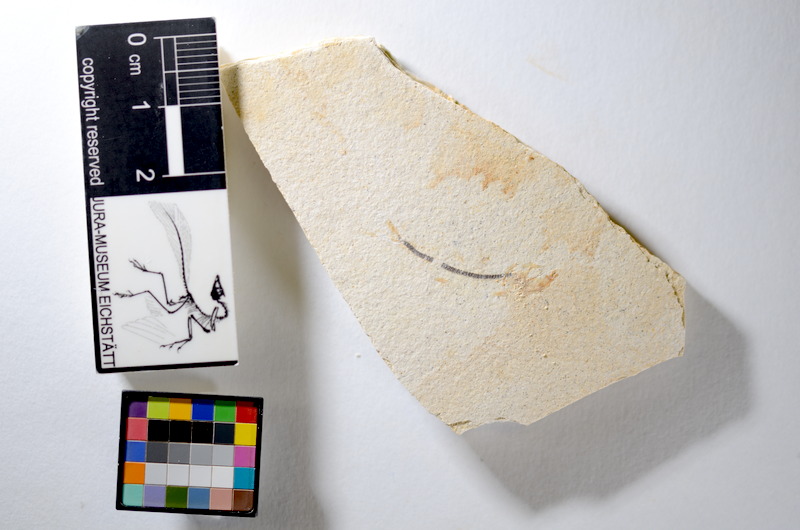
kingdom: Animalia
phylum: Chordata
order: Salmoniformes
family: Orthogonikleithridae
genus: Orthogonikleithrus
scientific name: Orthogonikleithrus hoelli
